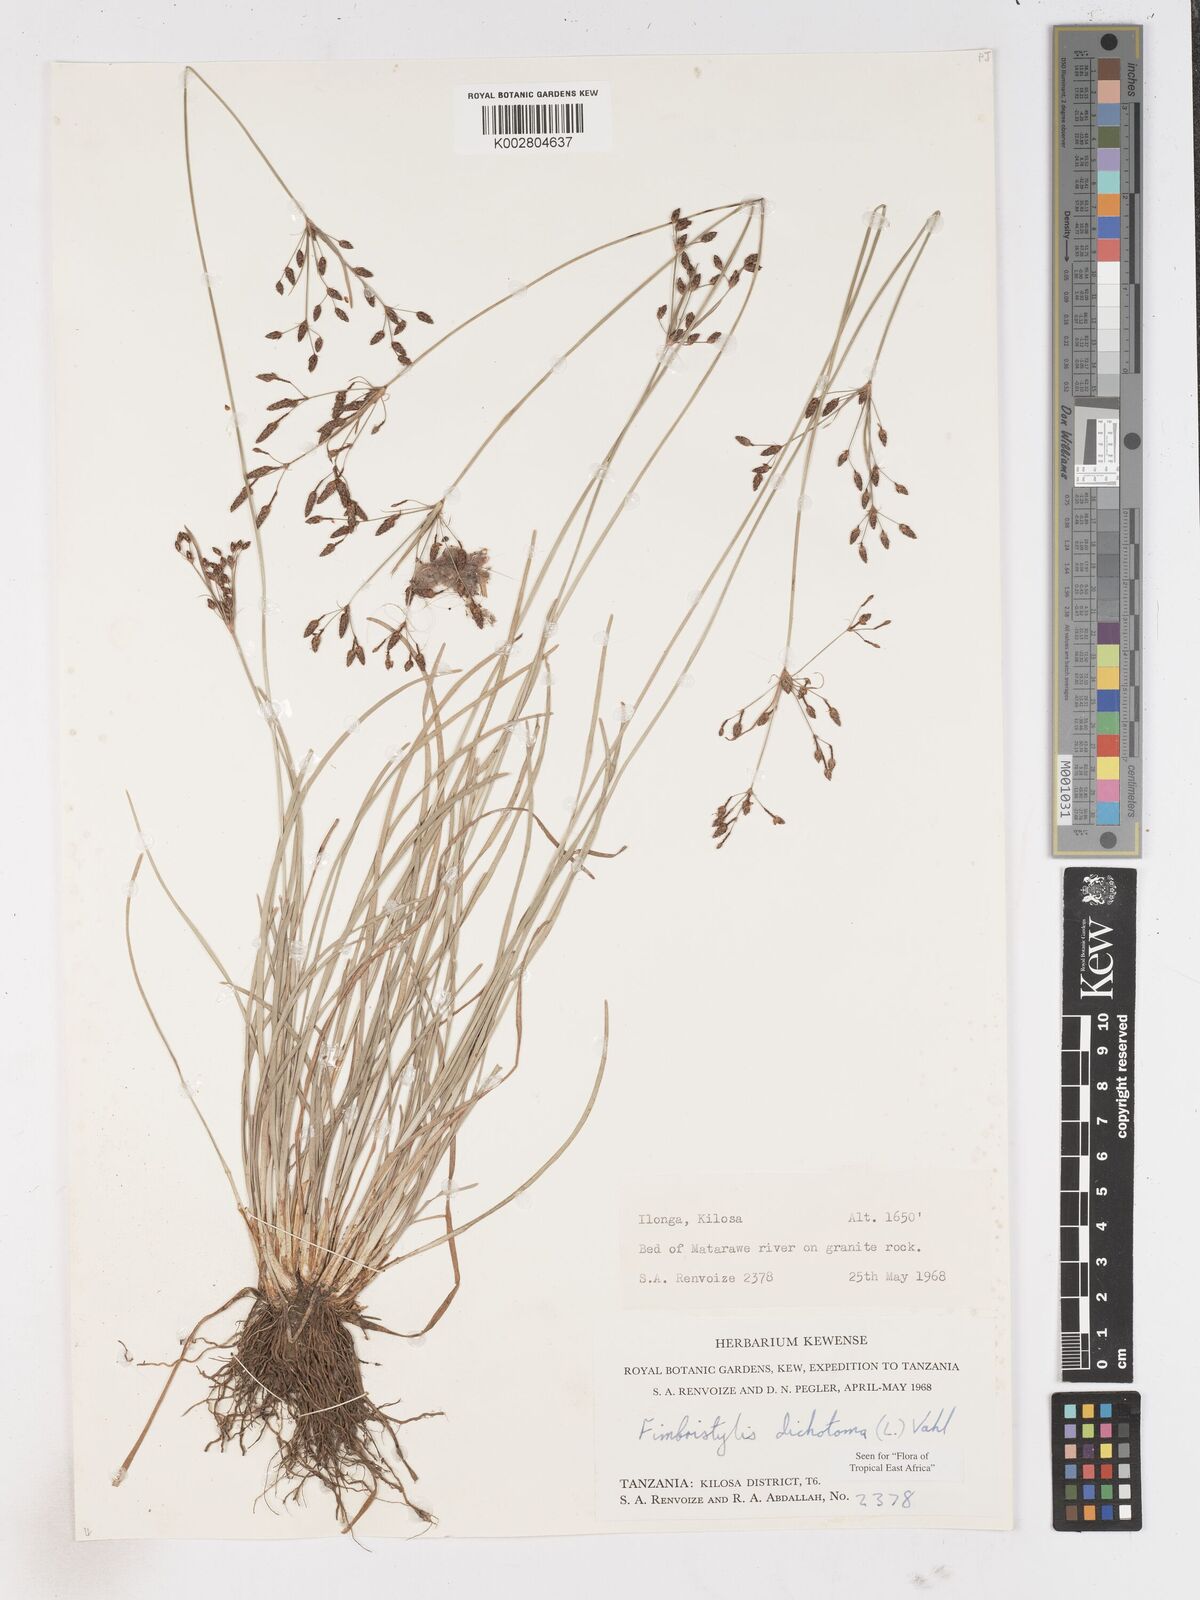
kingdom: Plantae
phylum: Tracheophyta
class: Liliopsida
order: Poales
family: Cyperaceae
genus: Fimbristylis
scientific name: Fimbristylis dichotoma
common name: Forked fimbry
